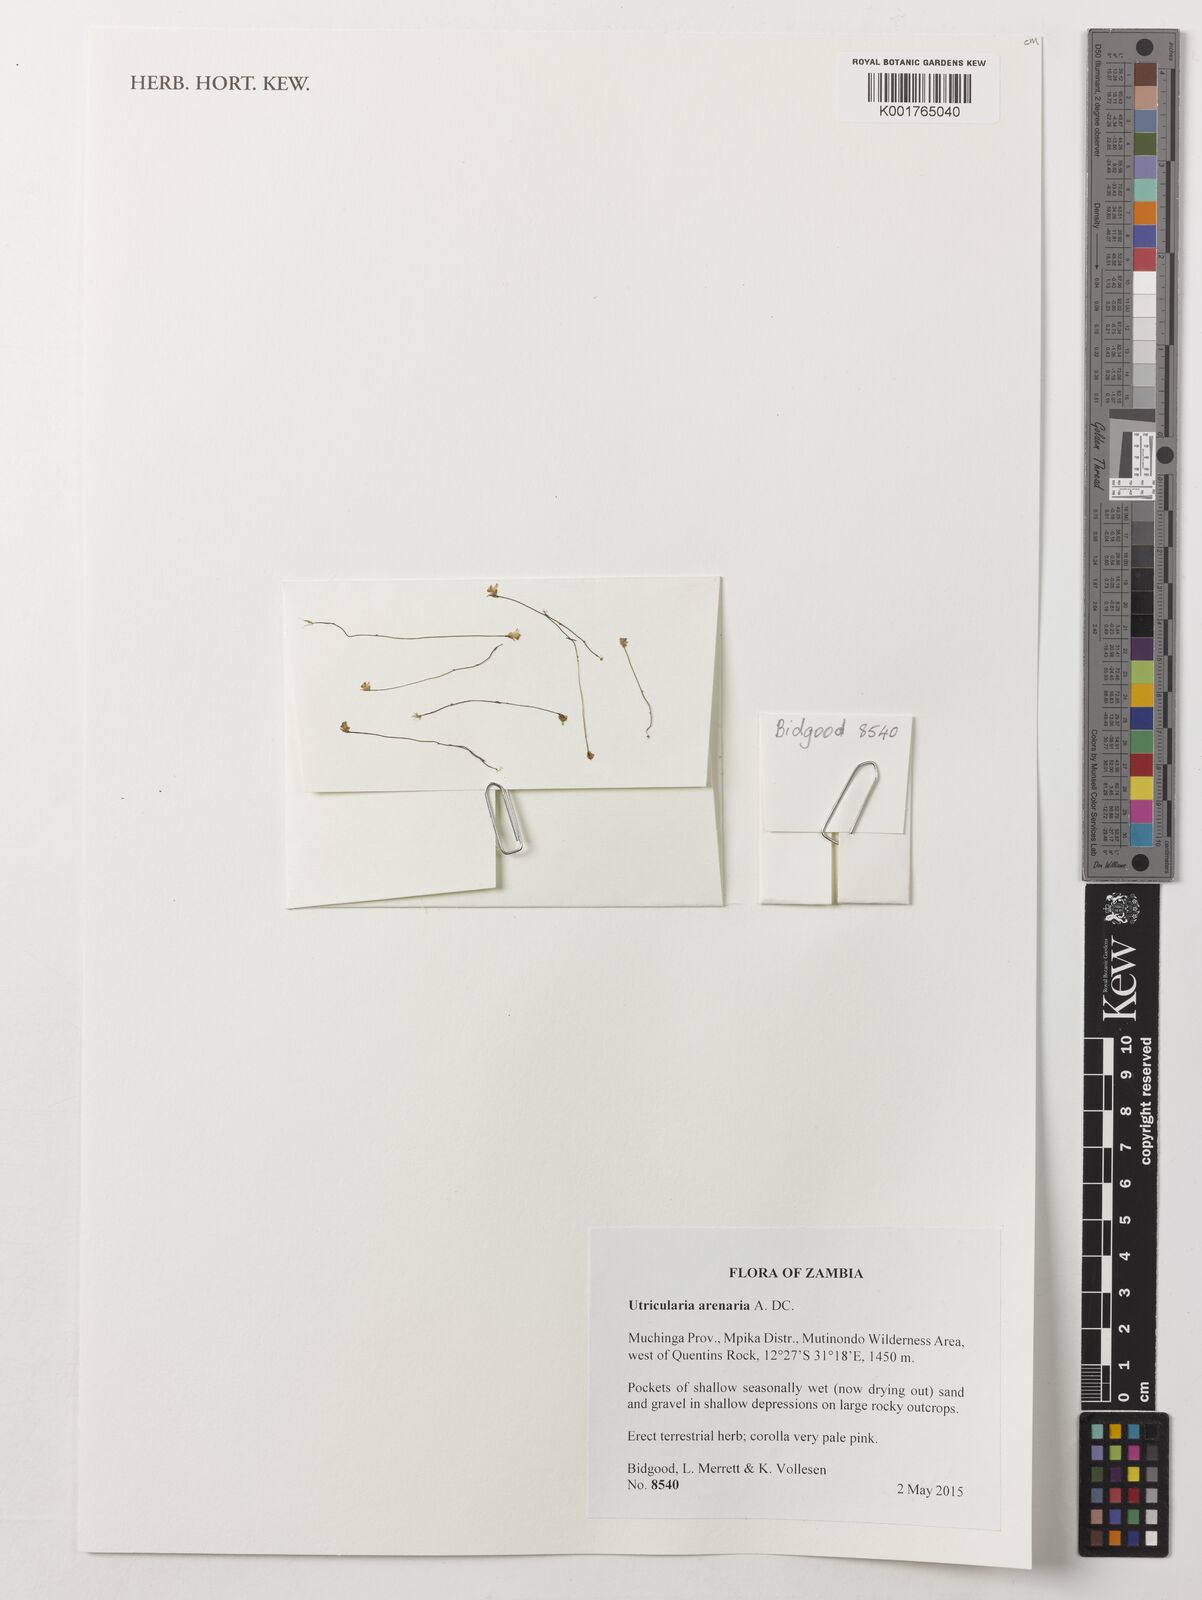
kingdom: Plantae
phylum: Tracheophyta
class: Magnoliopsida
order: Lamiales
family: Lentibulariaceae
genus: Utricularia
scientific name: Utricularia arenaria
